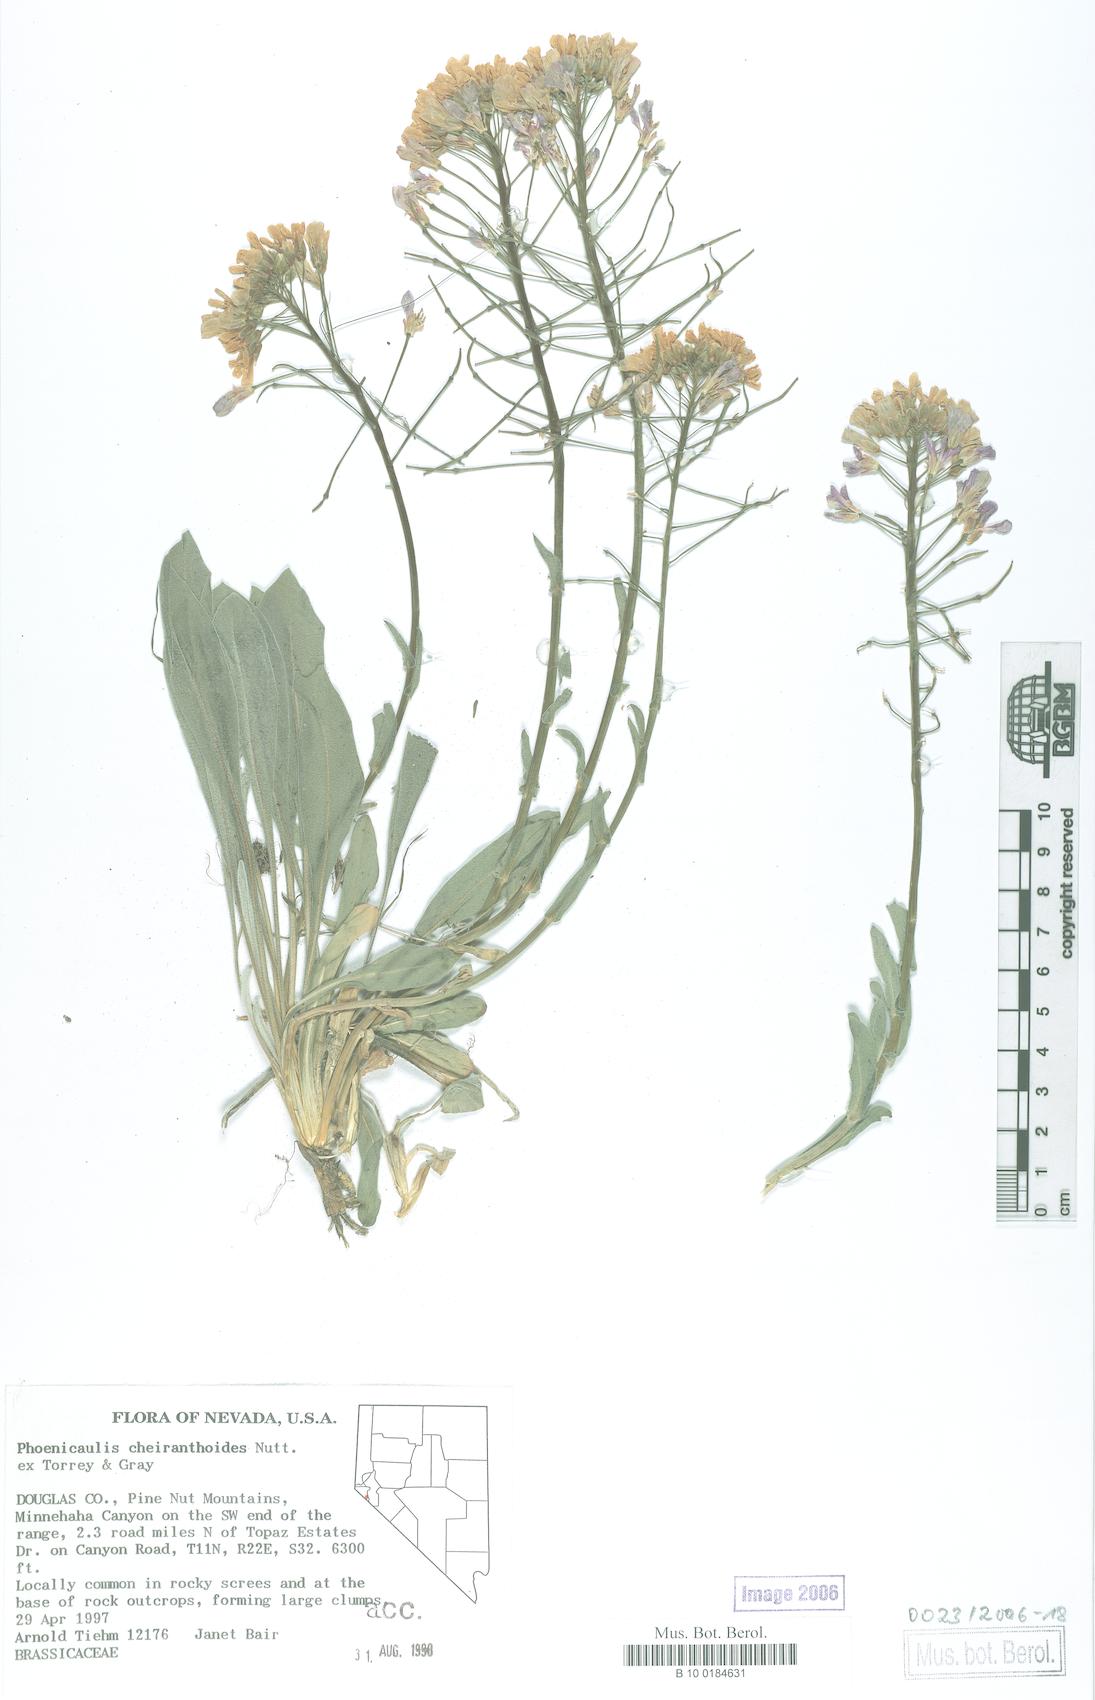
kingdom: Plantae
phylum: Tracheophyta
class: Magnoliopsida
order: Brassicales
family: Brassicaceae
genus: Phoenicaulis
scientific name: Phoenicaulis cheiranthoides
